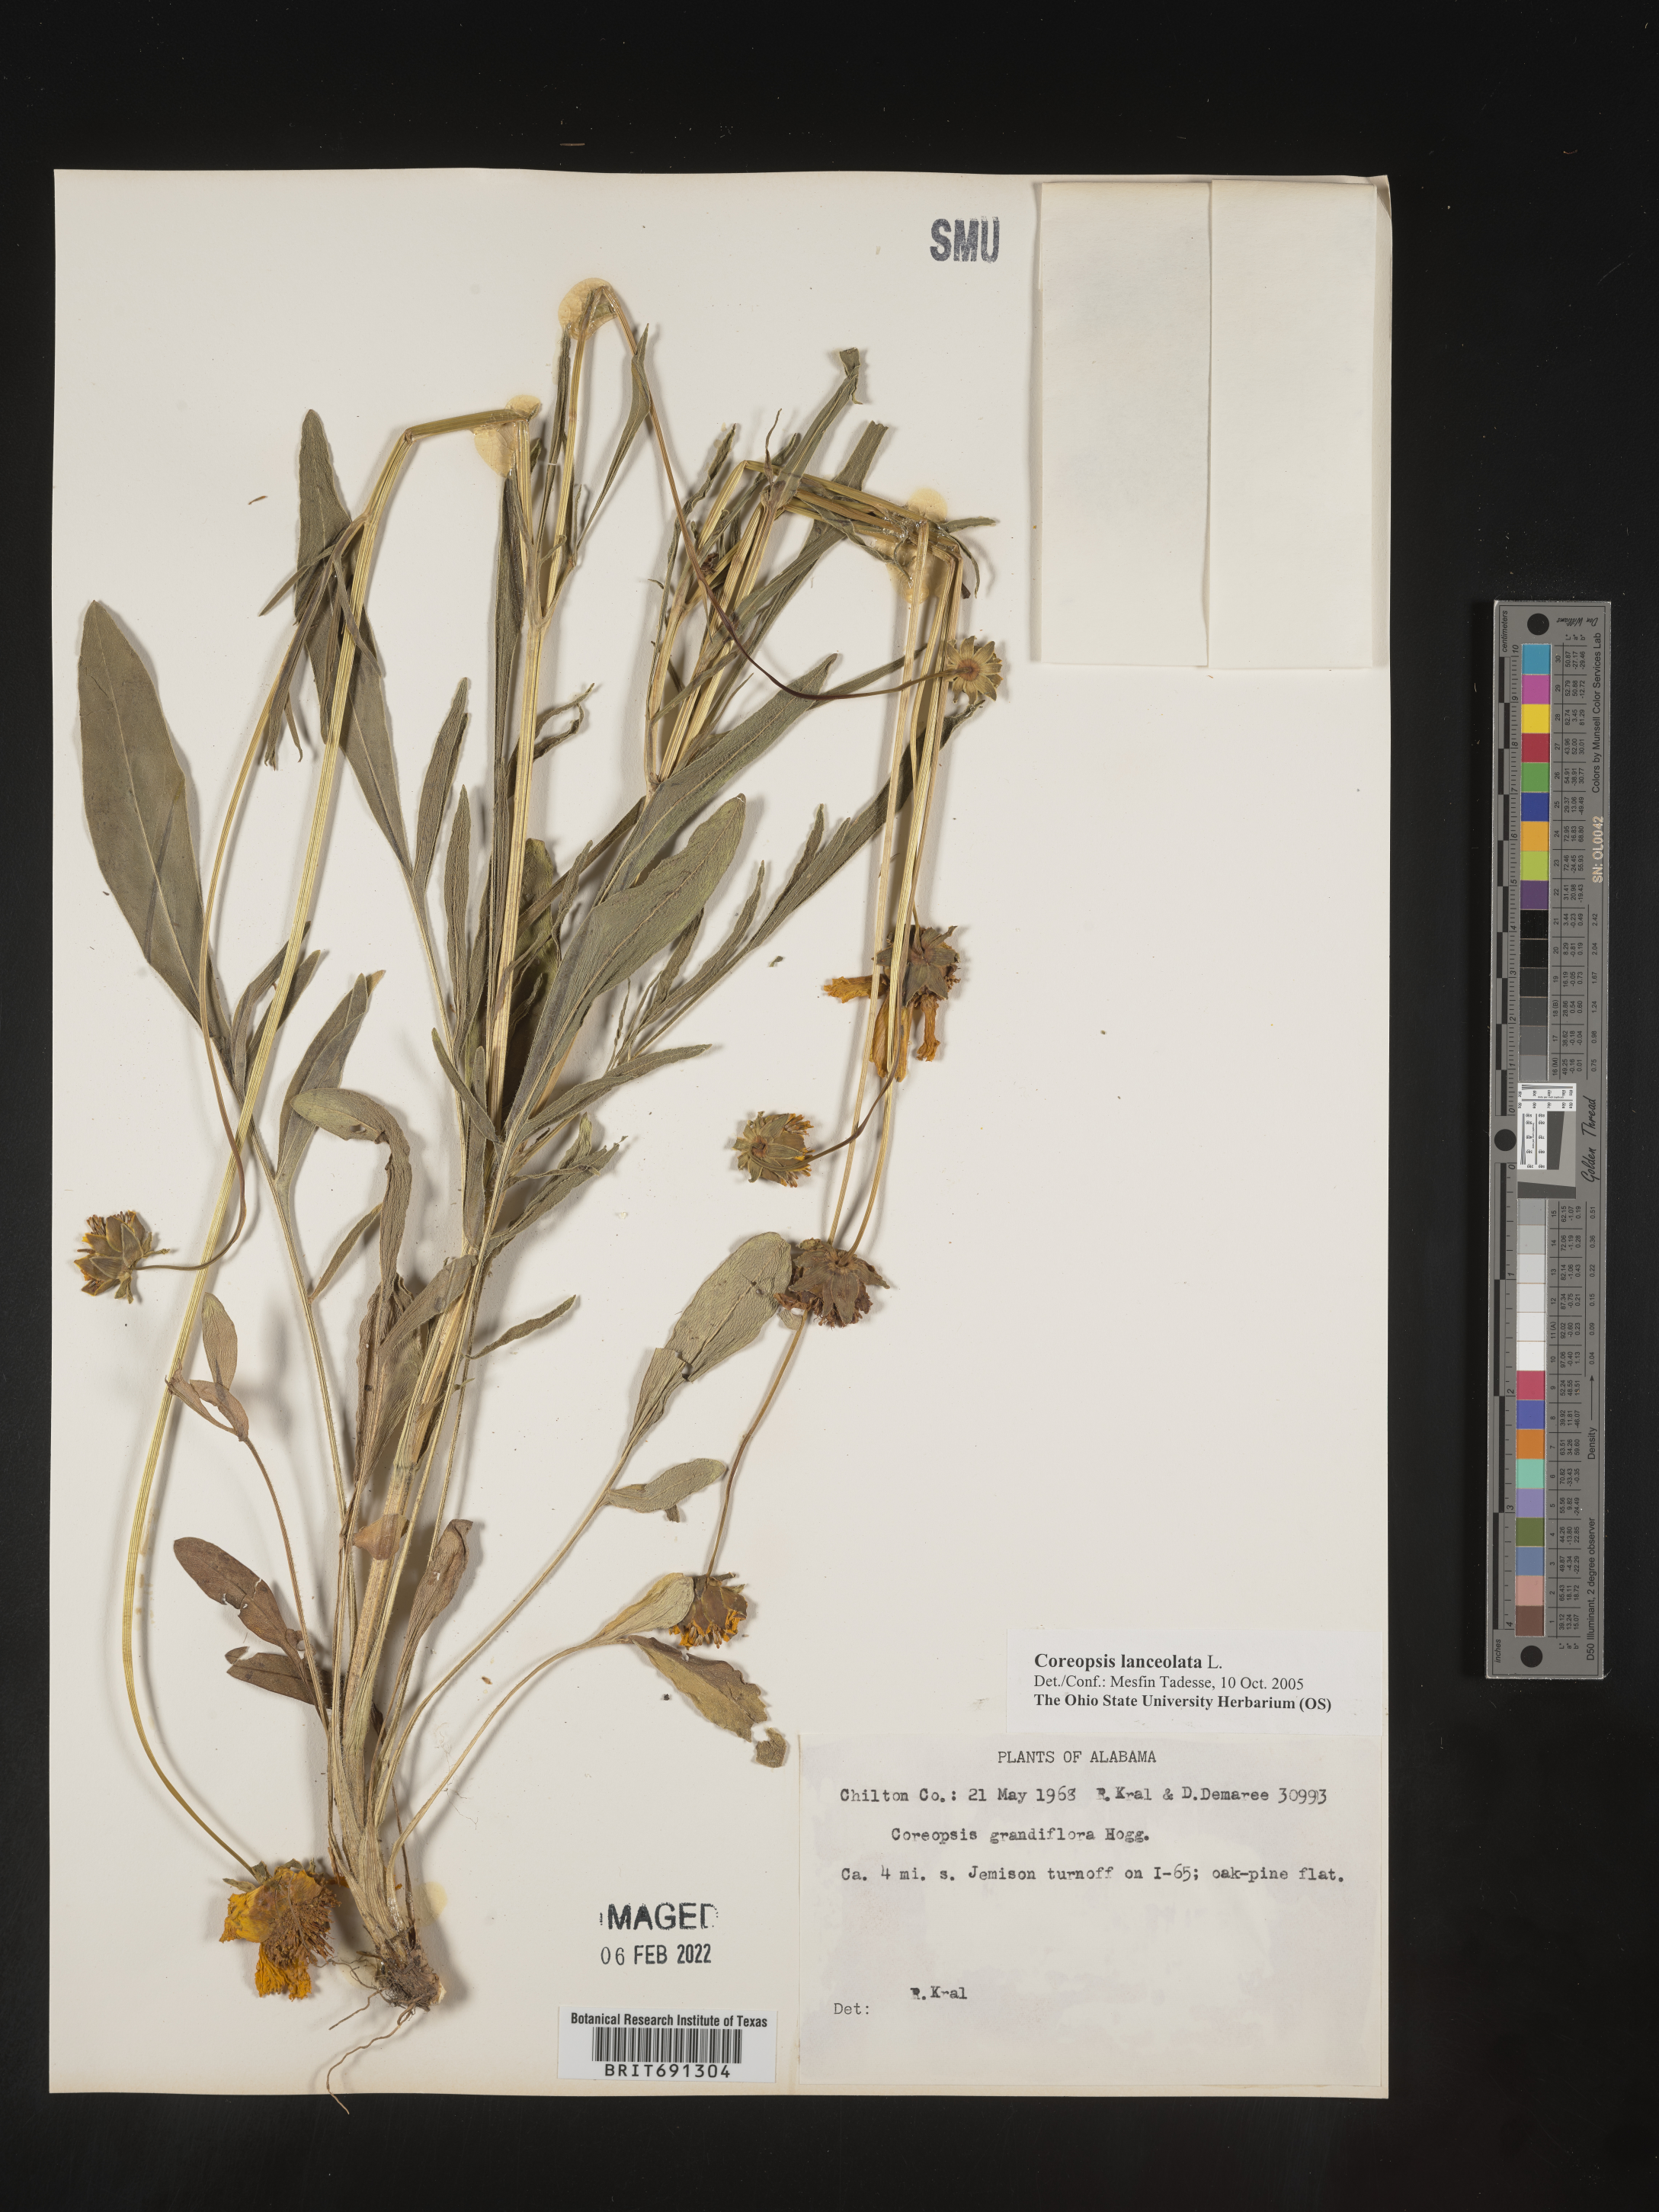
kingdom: Plantae
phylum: Tracheophyta
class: Magnoliopsida
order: Asterales
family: Asteraceae
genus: Coreopsis
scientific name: Coreopsis lanceolata
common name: Garden coreopsis
